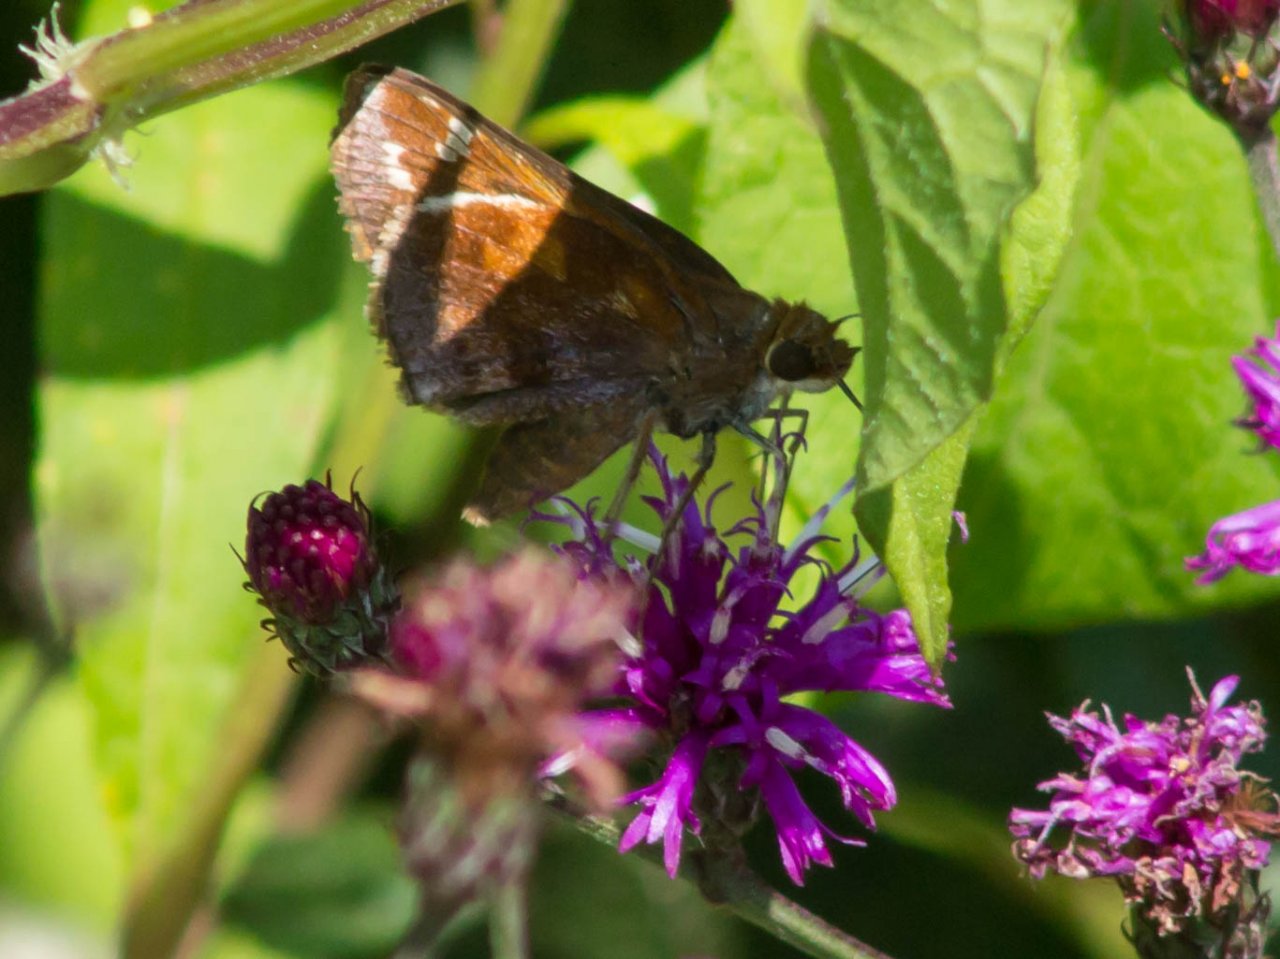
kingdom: Animalia
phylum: Arthropoda
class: Insecta
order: Lepidoptera
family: Hesperiidae
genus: Lon
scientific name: Lon zabulon
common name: Zabulon Skipper
